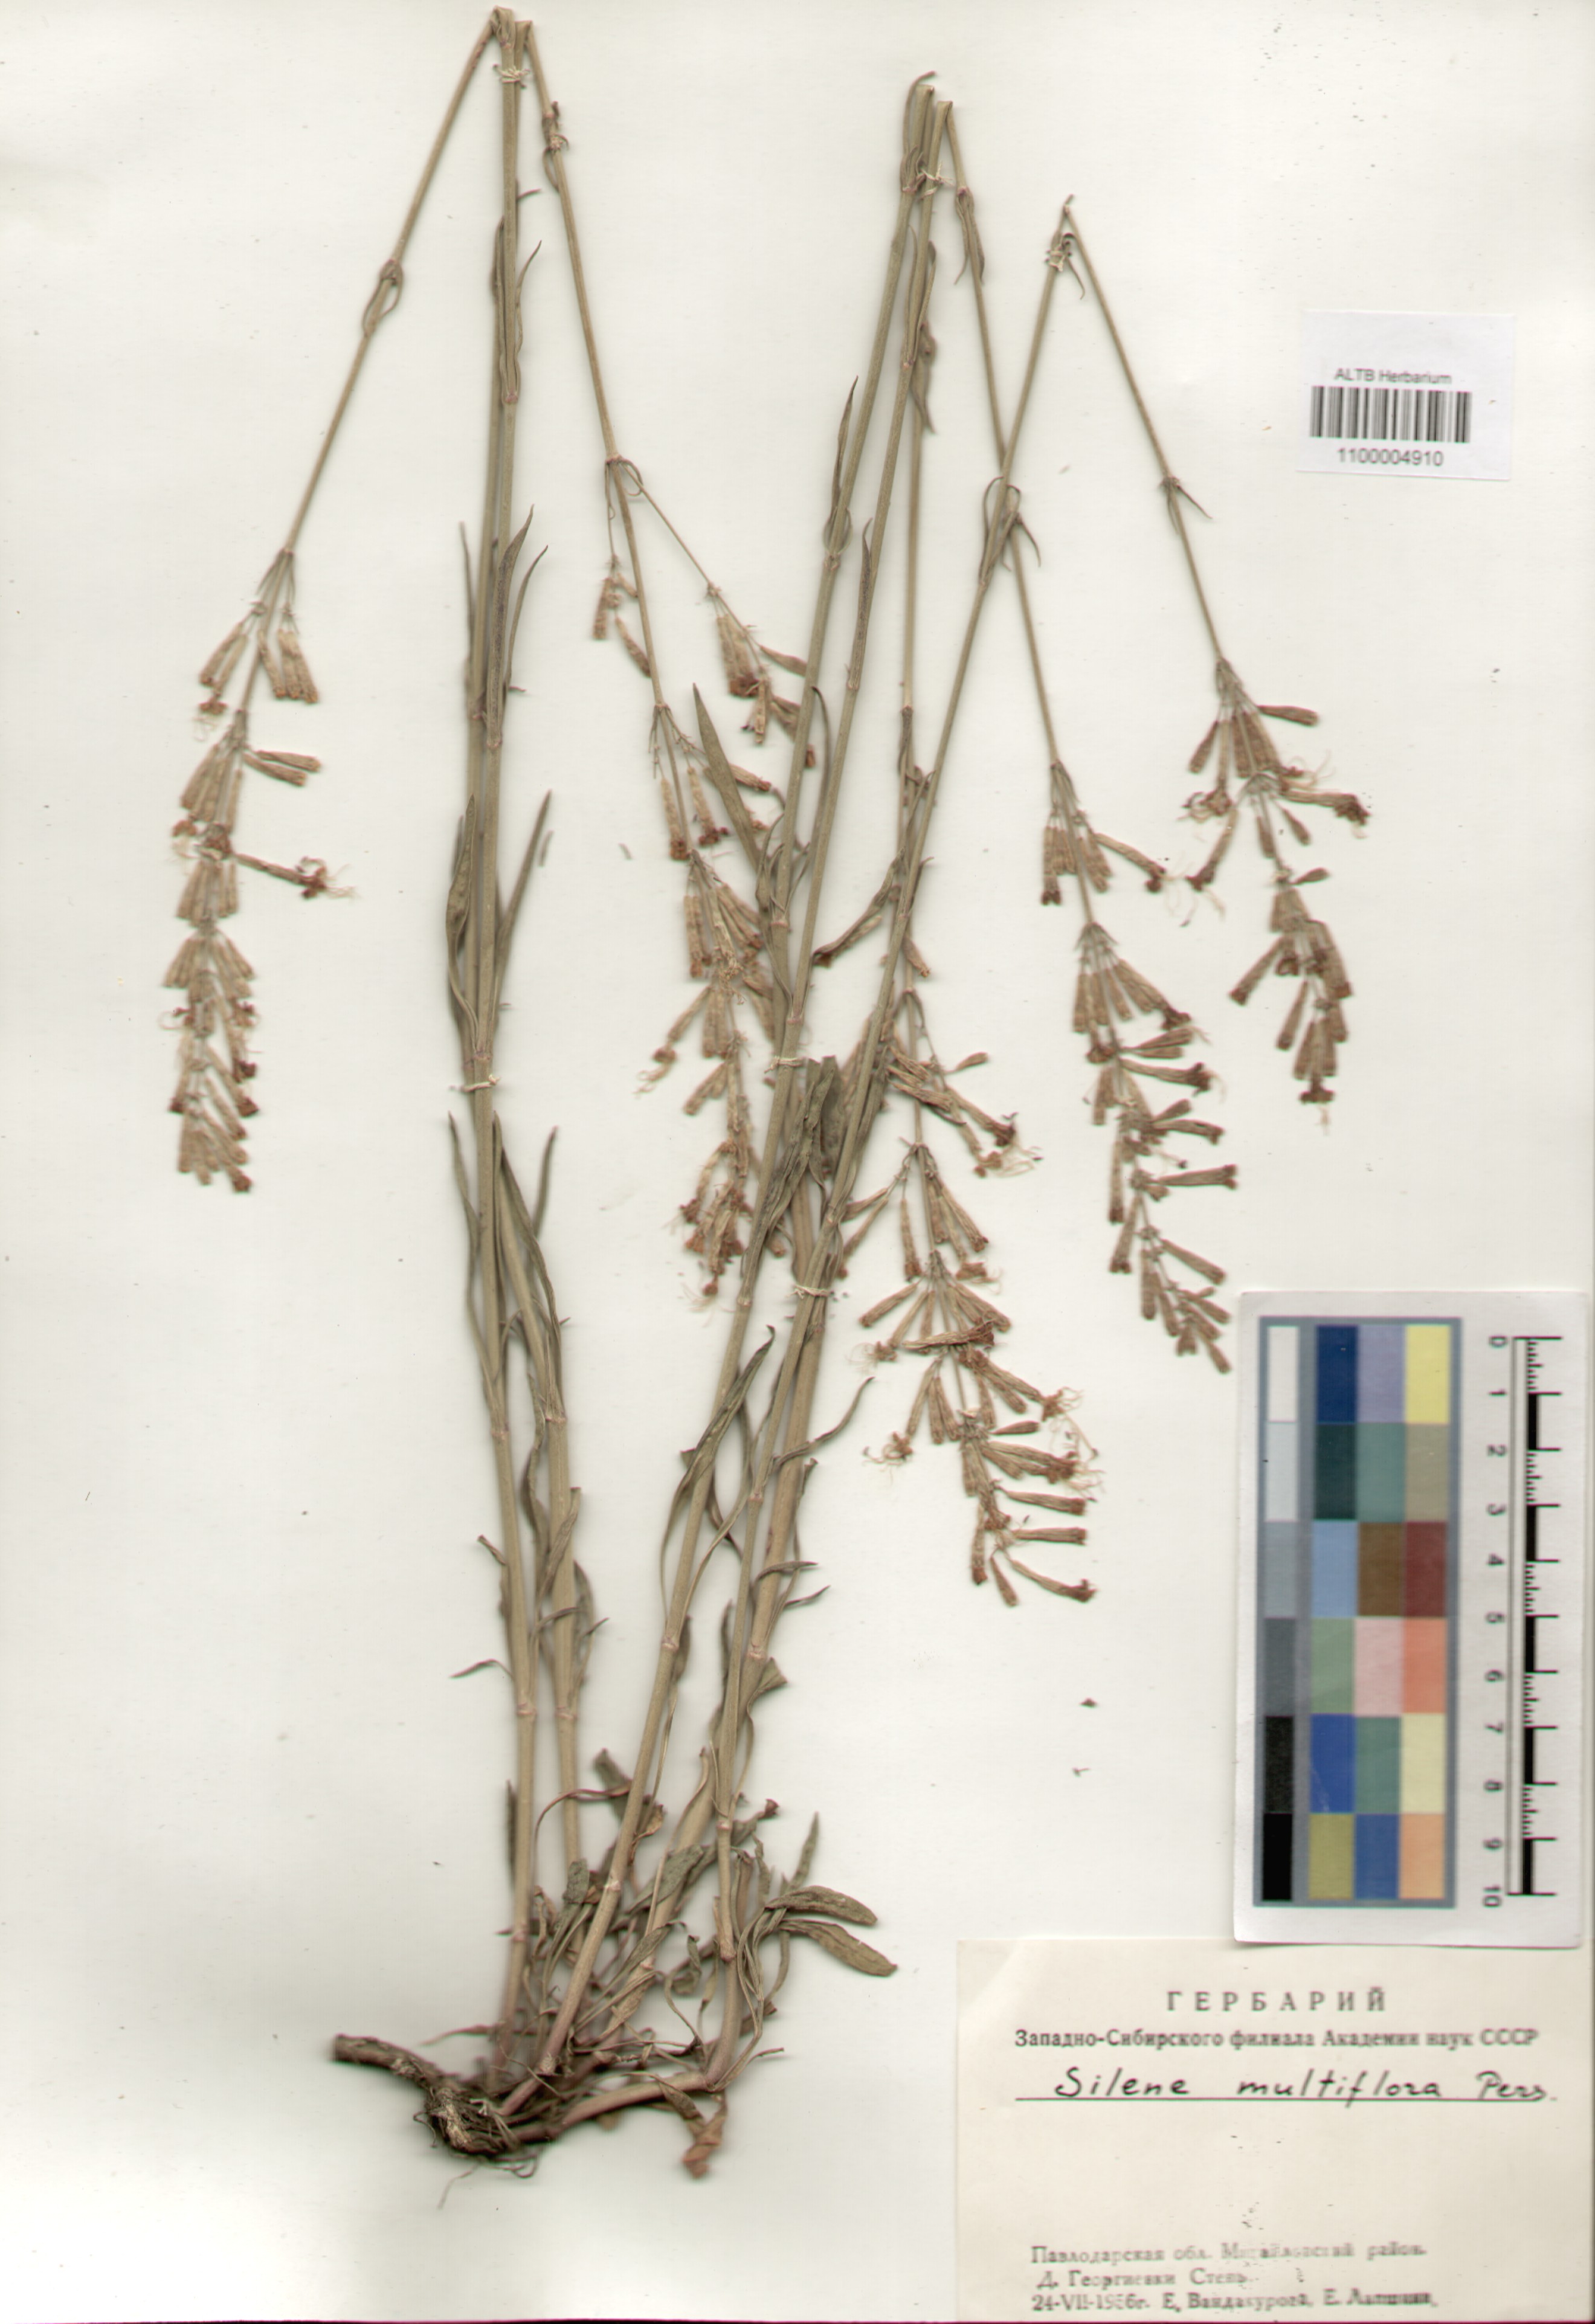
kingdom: Plantae
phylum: Tracheophyta
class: Magnoliopsida
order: Caryophyllales
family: Caryophyllaceae
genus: Silene
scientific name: Silene multiflora
